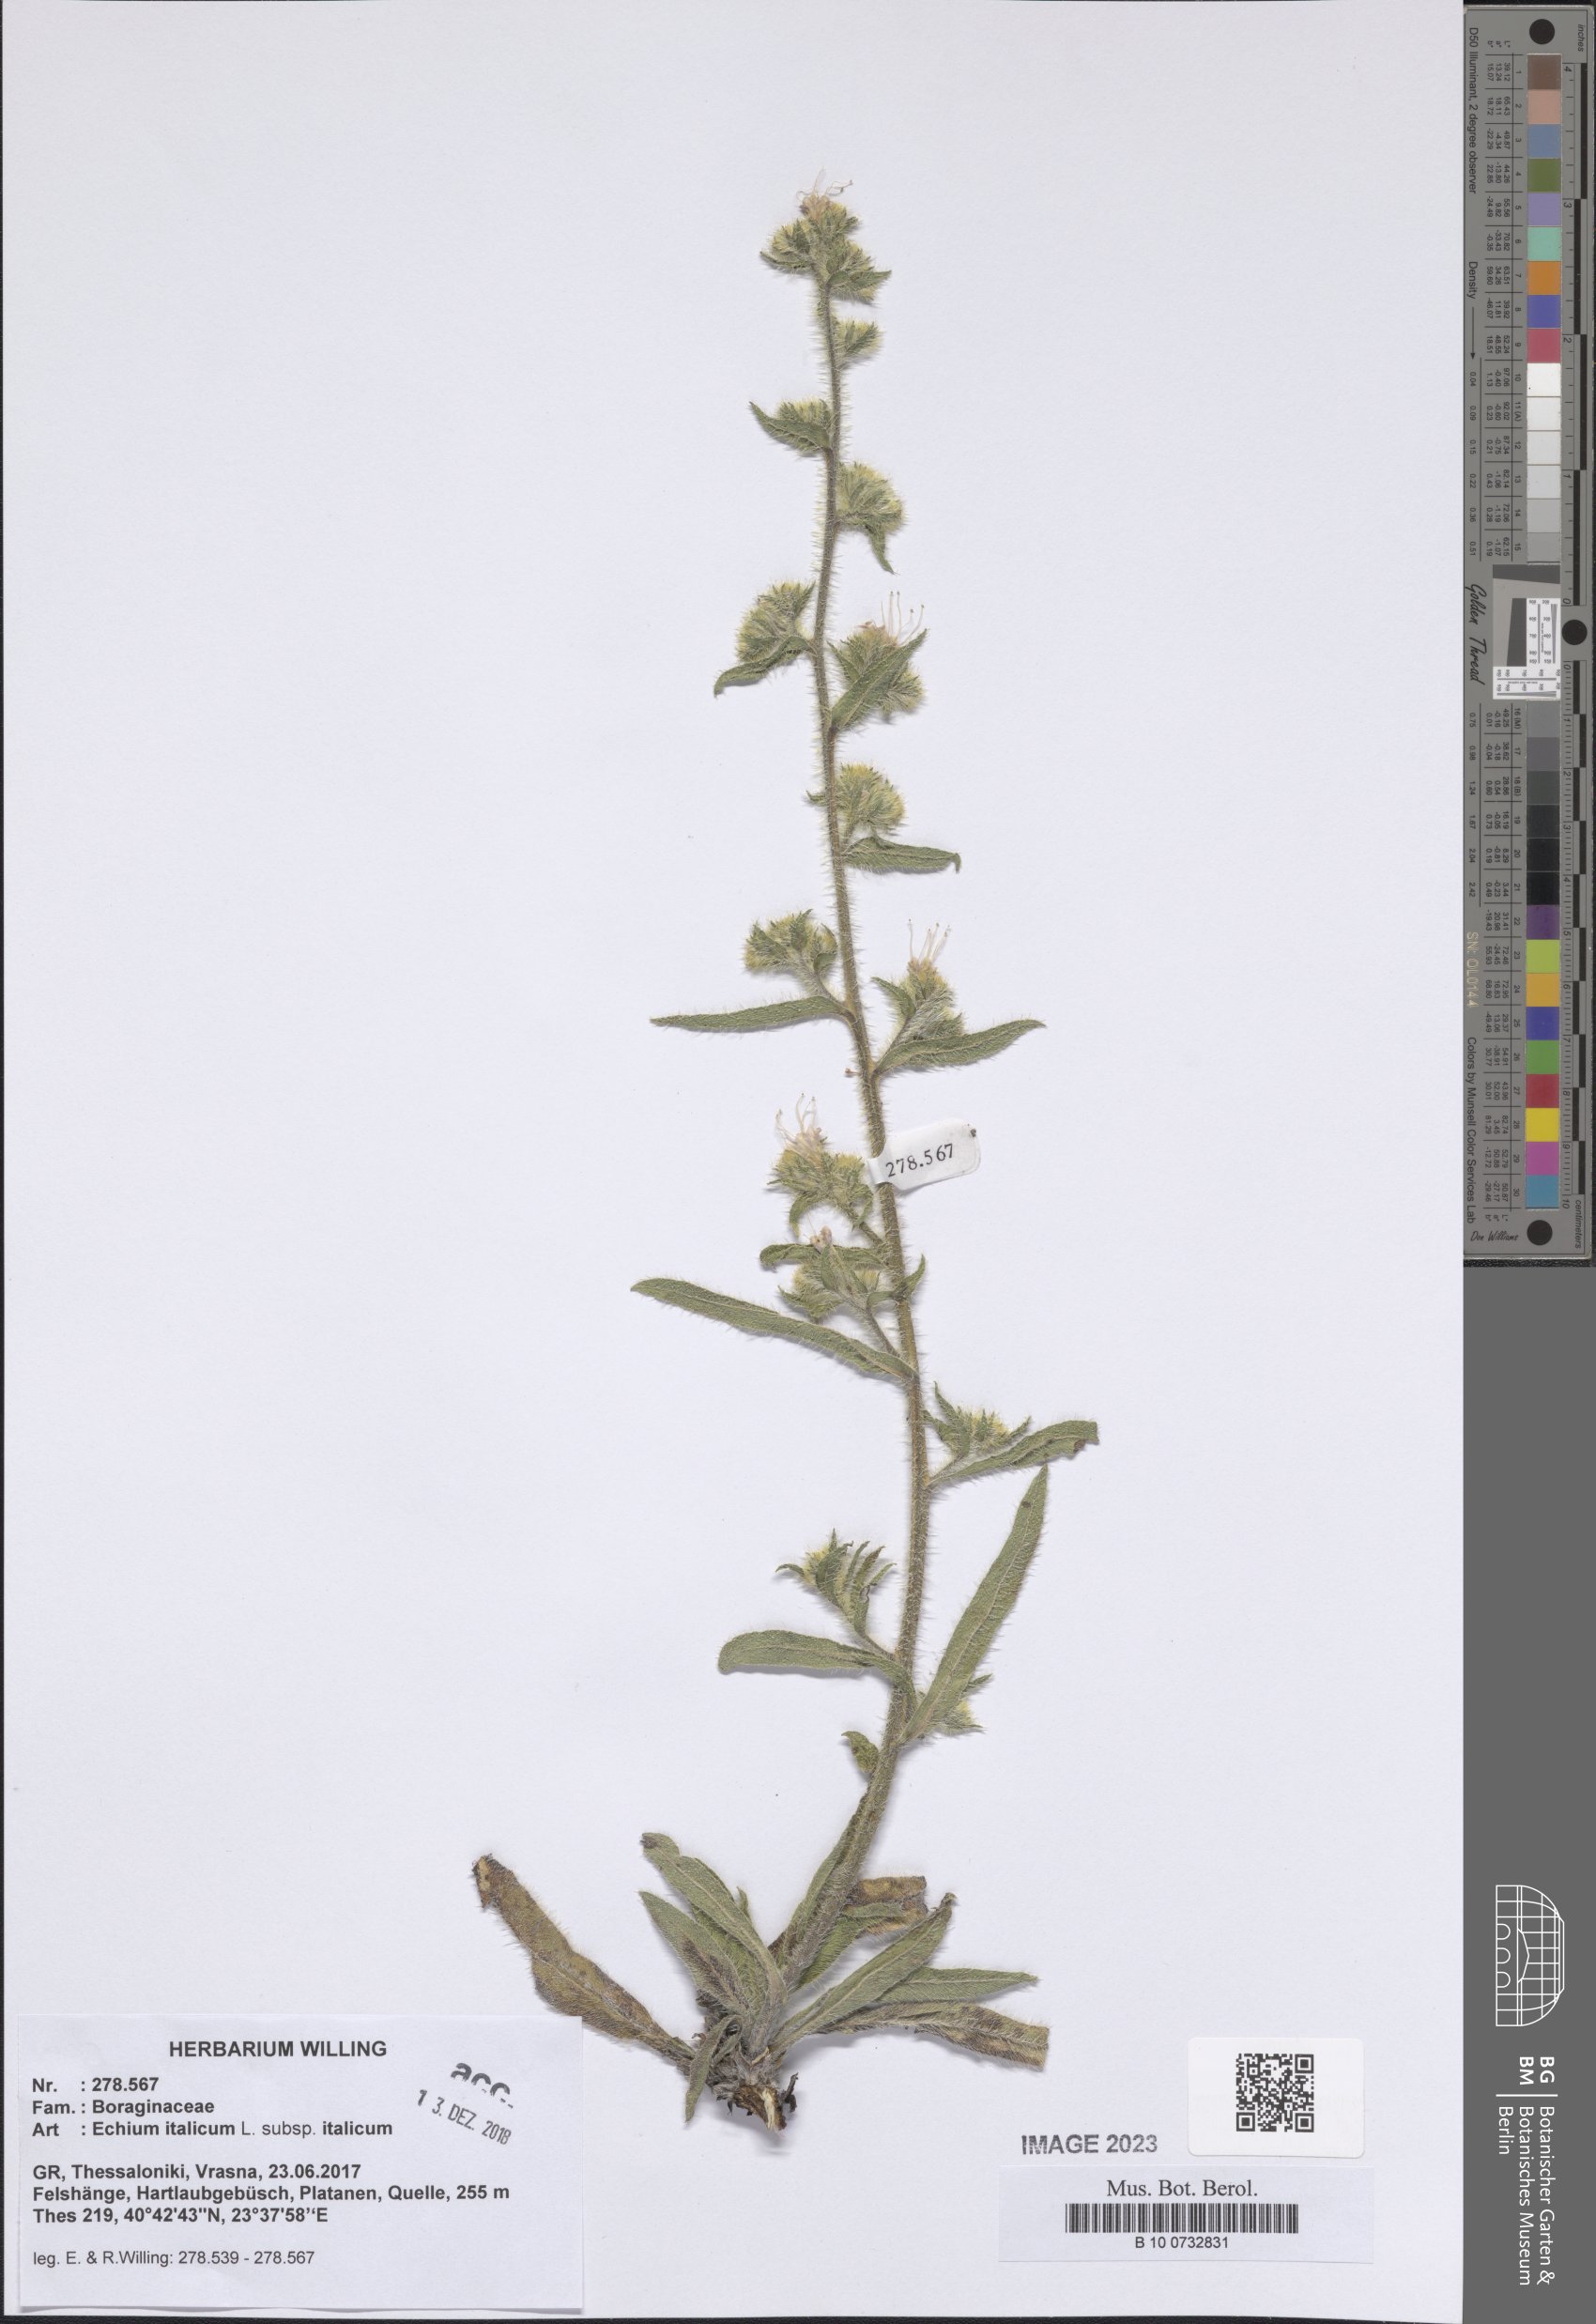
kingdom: Plantae
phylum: Tracheophyta
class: Magnoliopsida
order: Boraginales
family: Boraginaceae
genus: Echium
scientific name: Echium italicum
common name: Italian viper's bugloss
